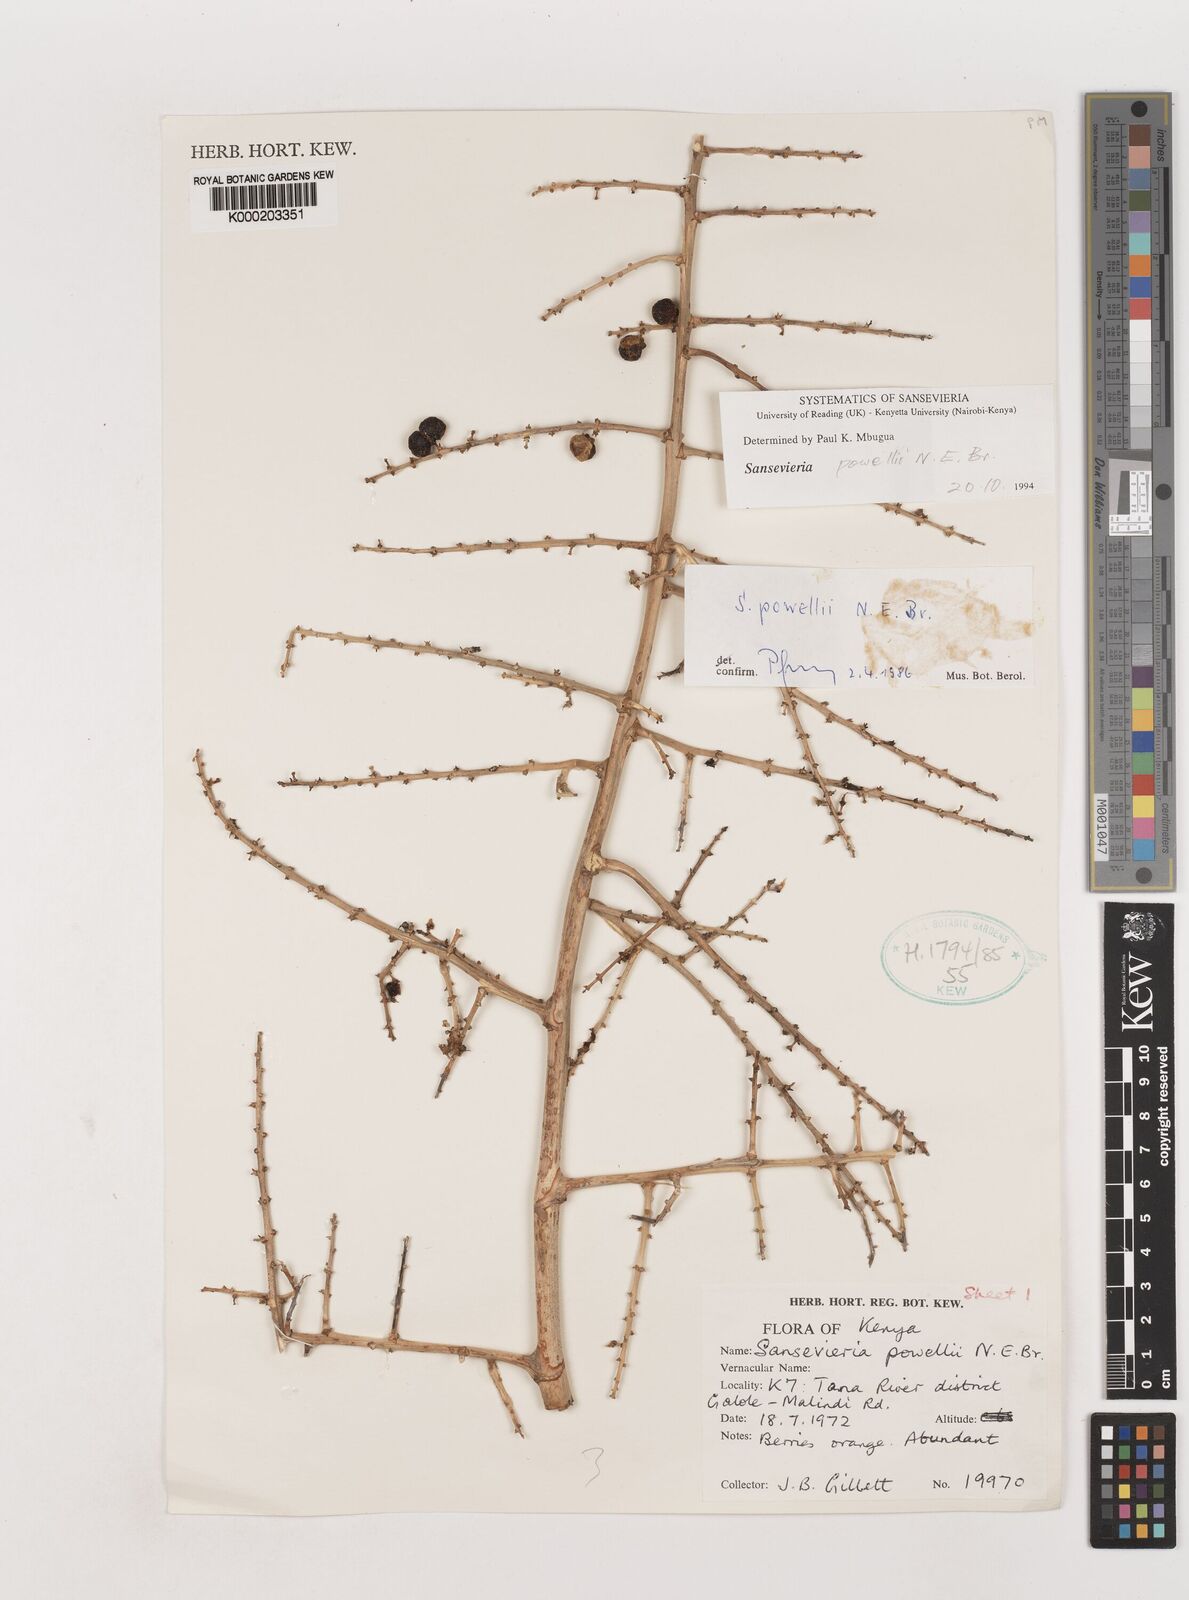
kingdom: Plantae
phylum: Tracheophyta
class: Liliopsida
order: Asparagales
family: Asparagaceae
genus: Dracaena
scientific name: Dracaena powellii
